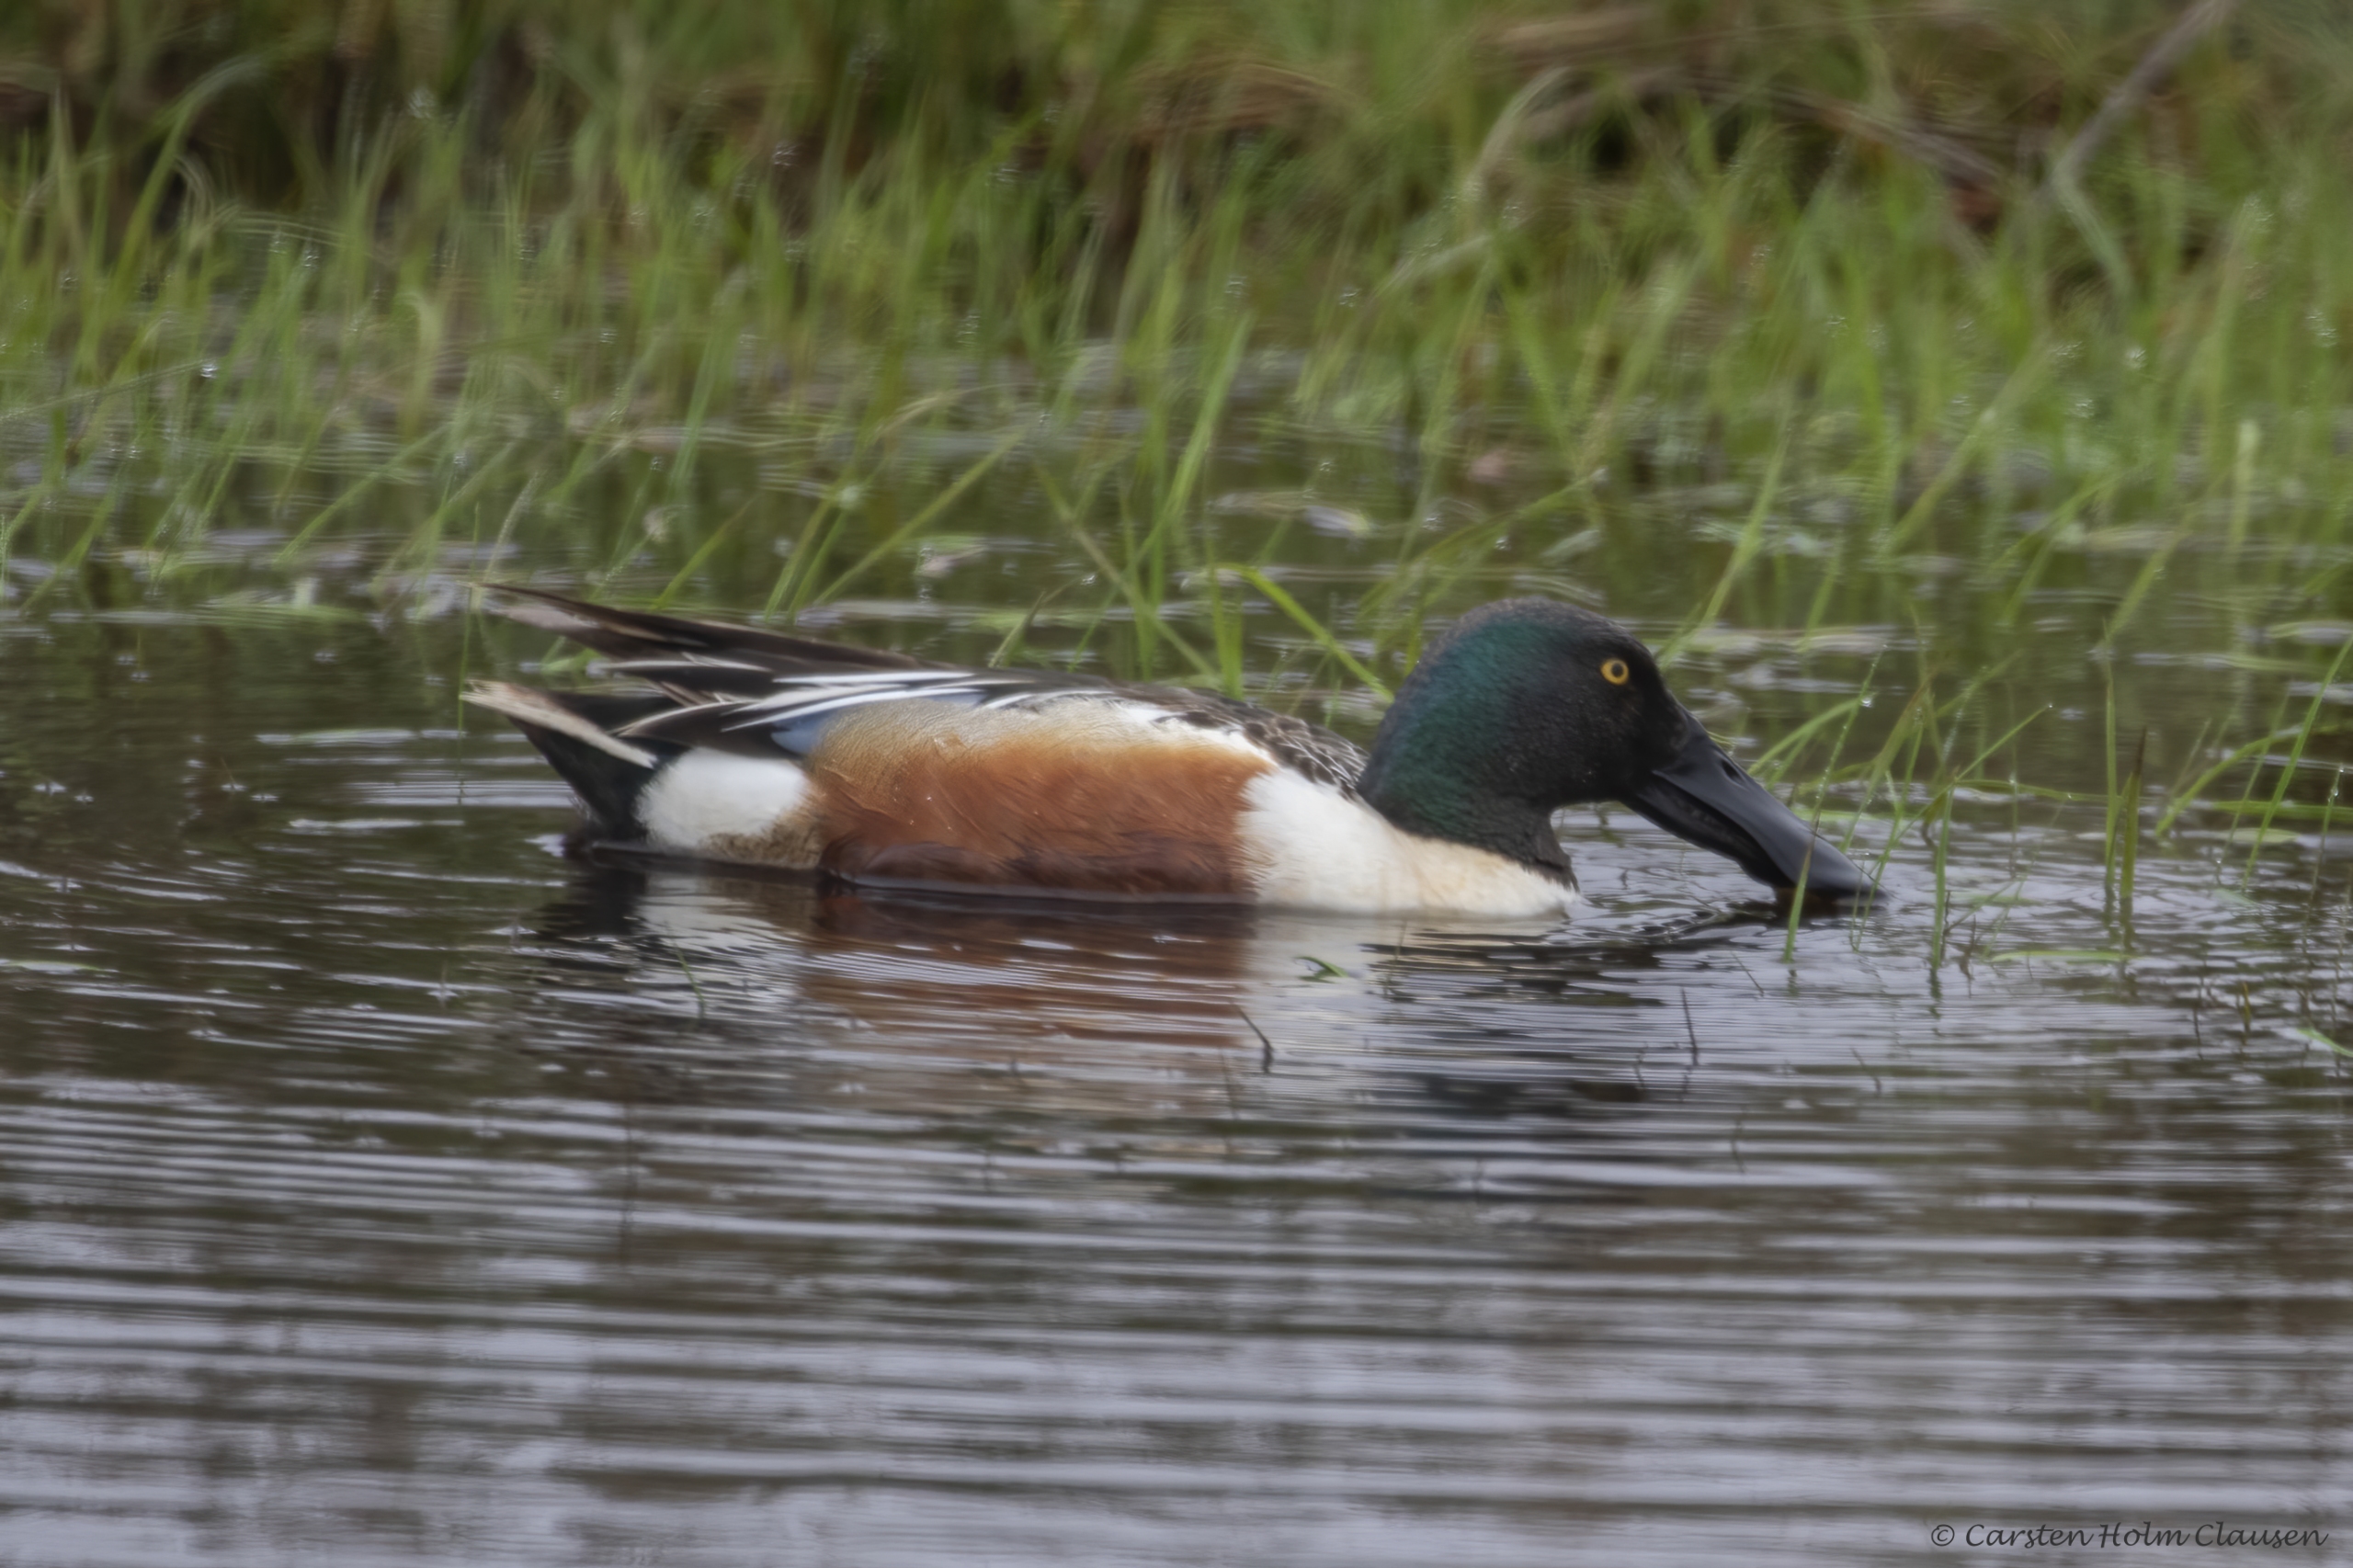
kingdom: Animalia
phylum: Chordata
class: Aves
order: Anseriformes
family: Anatidae
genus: Spatula
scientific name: Spatula clypeata
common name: Skeand
